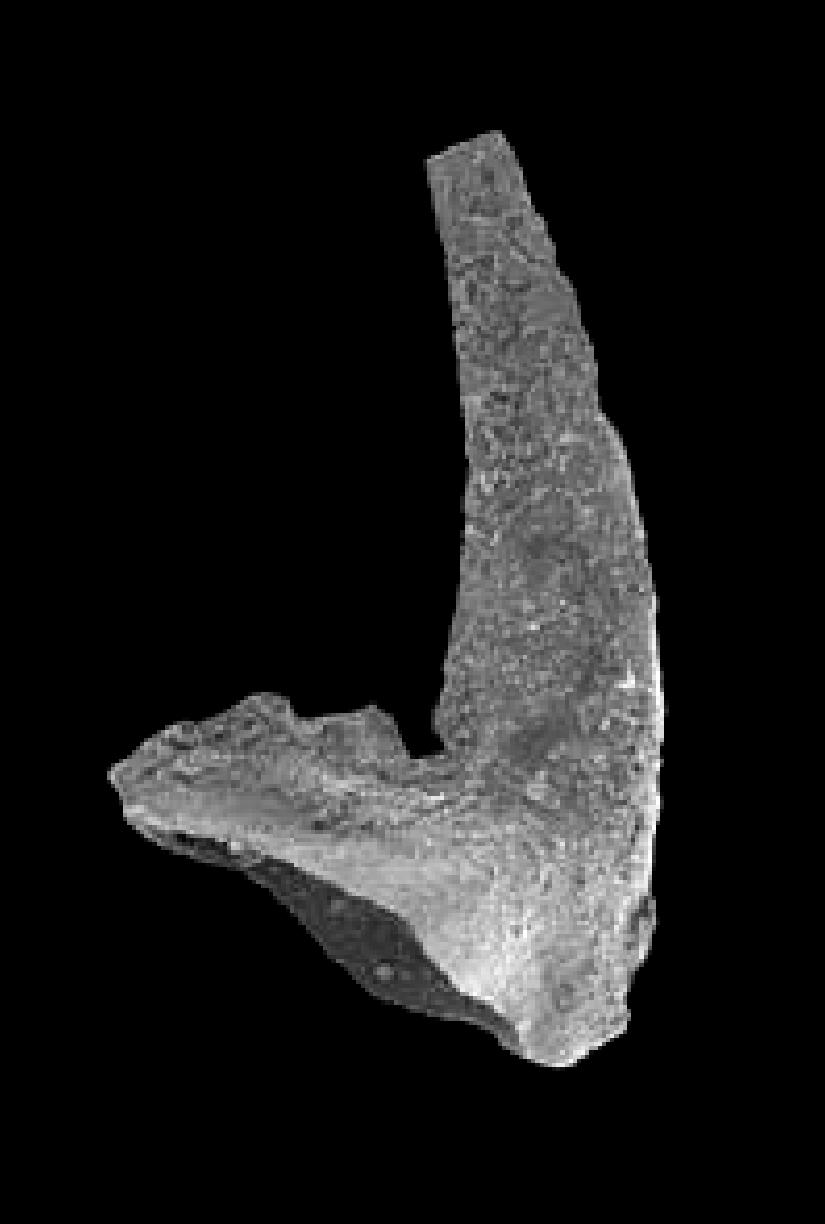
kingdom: Animalia
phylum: Chordata
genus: Periodon
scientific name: Periodon aculeatus
